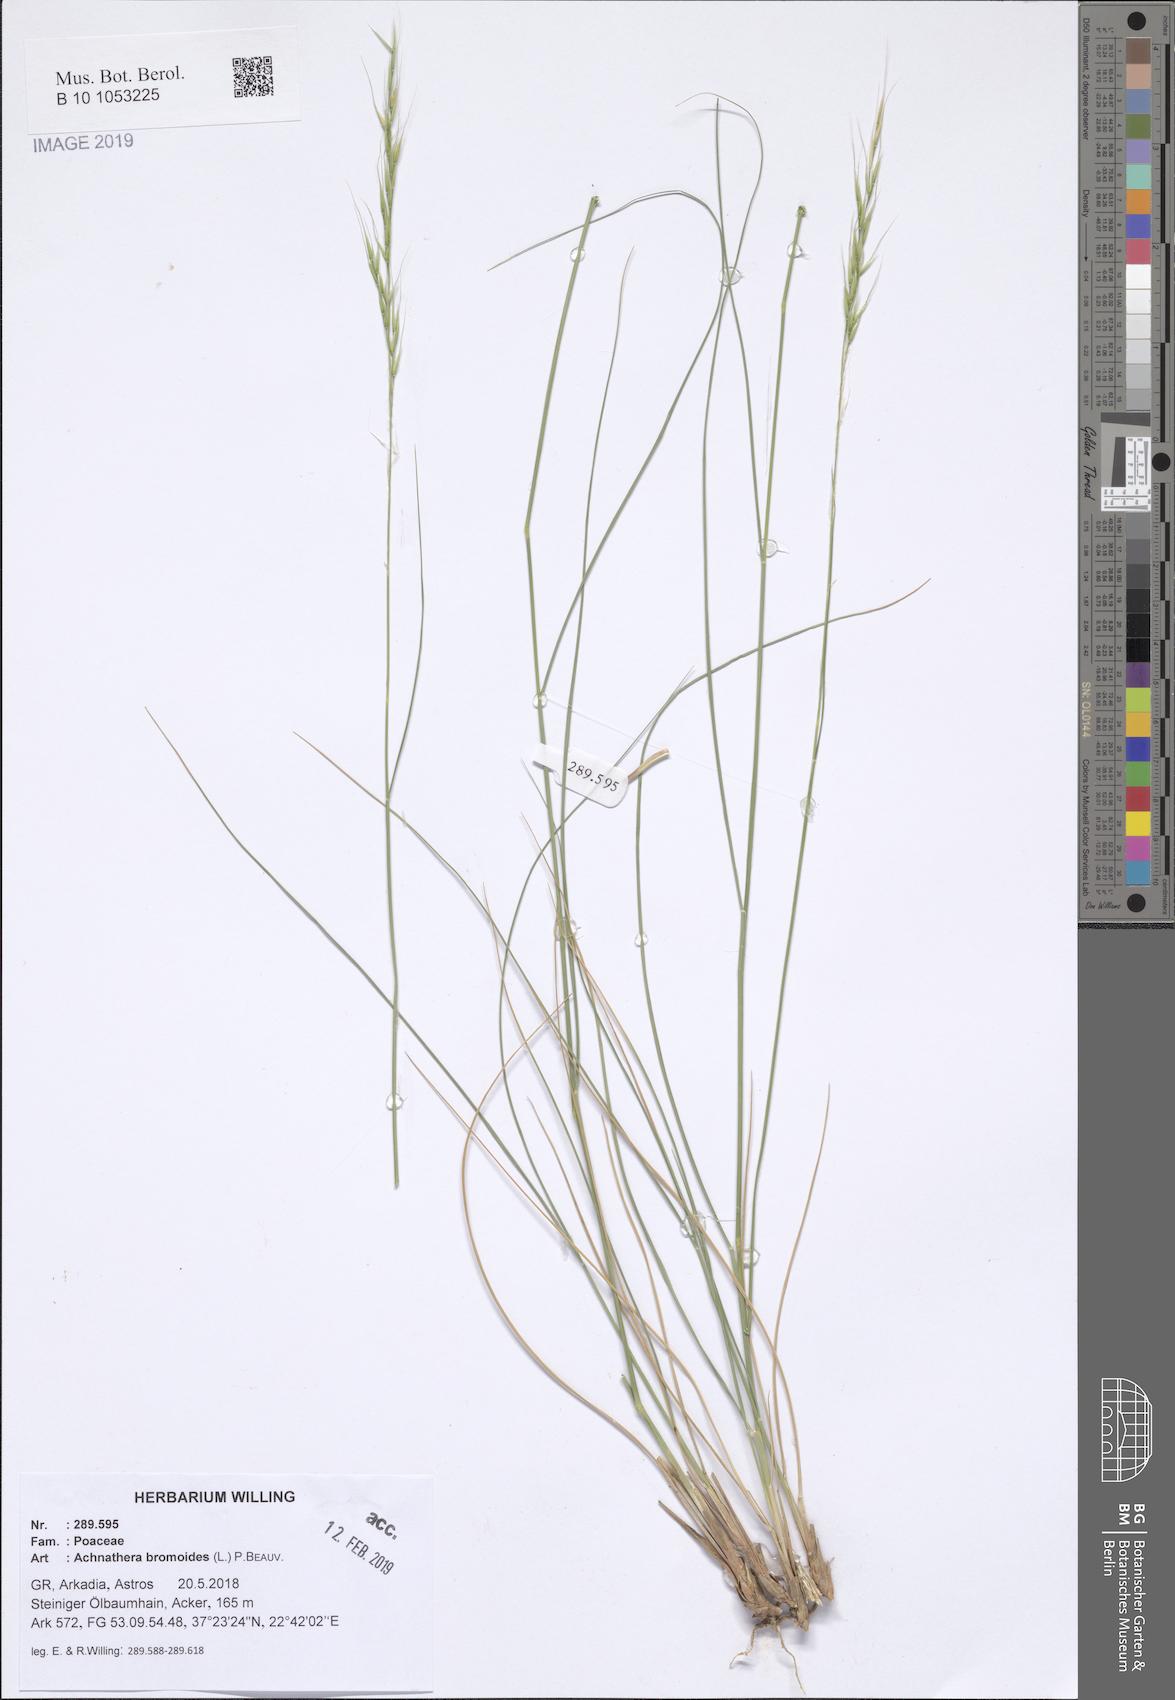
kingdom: Plantae
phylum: Tracheophyta
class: Liliopsida
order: Poales
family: Poaceae
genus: Achnatherum
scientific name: Achnatherum bromoides
